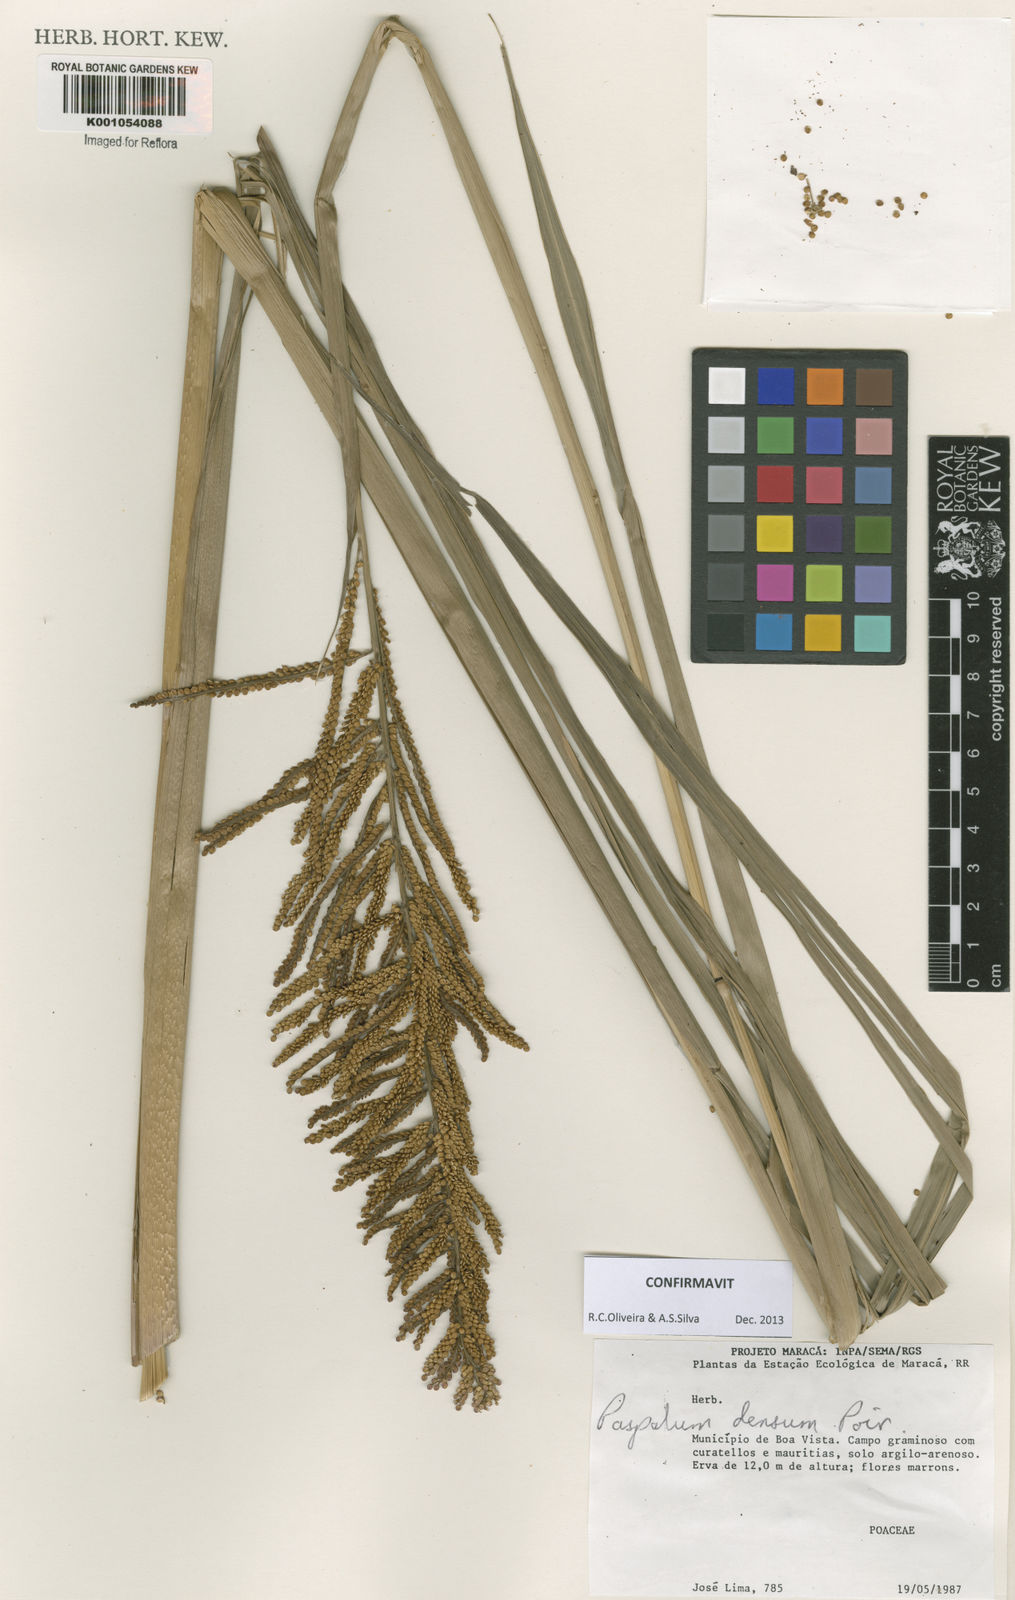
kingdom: Plantae
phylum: Tracheophyta
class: Liliopsida
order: Poales
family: Poaceae
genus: Paspalum
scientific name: Paspalum densum
